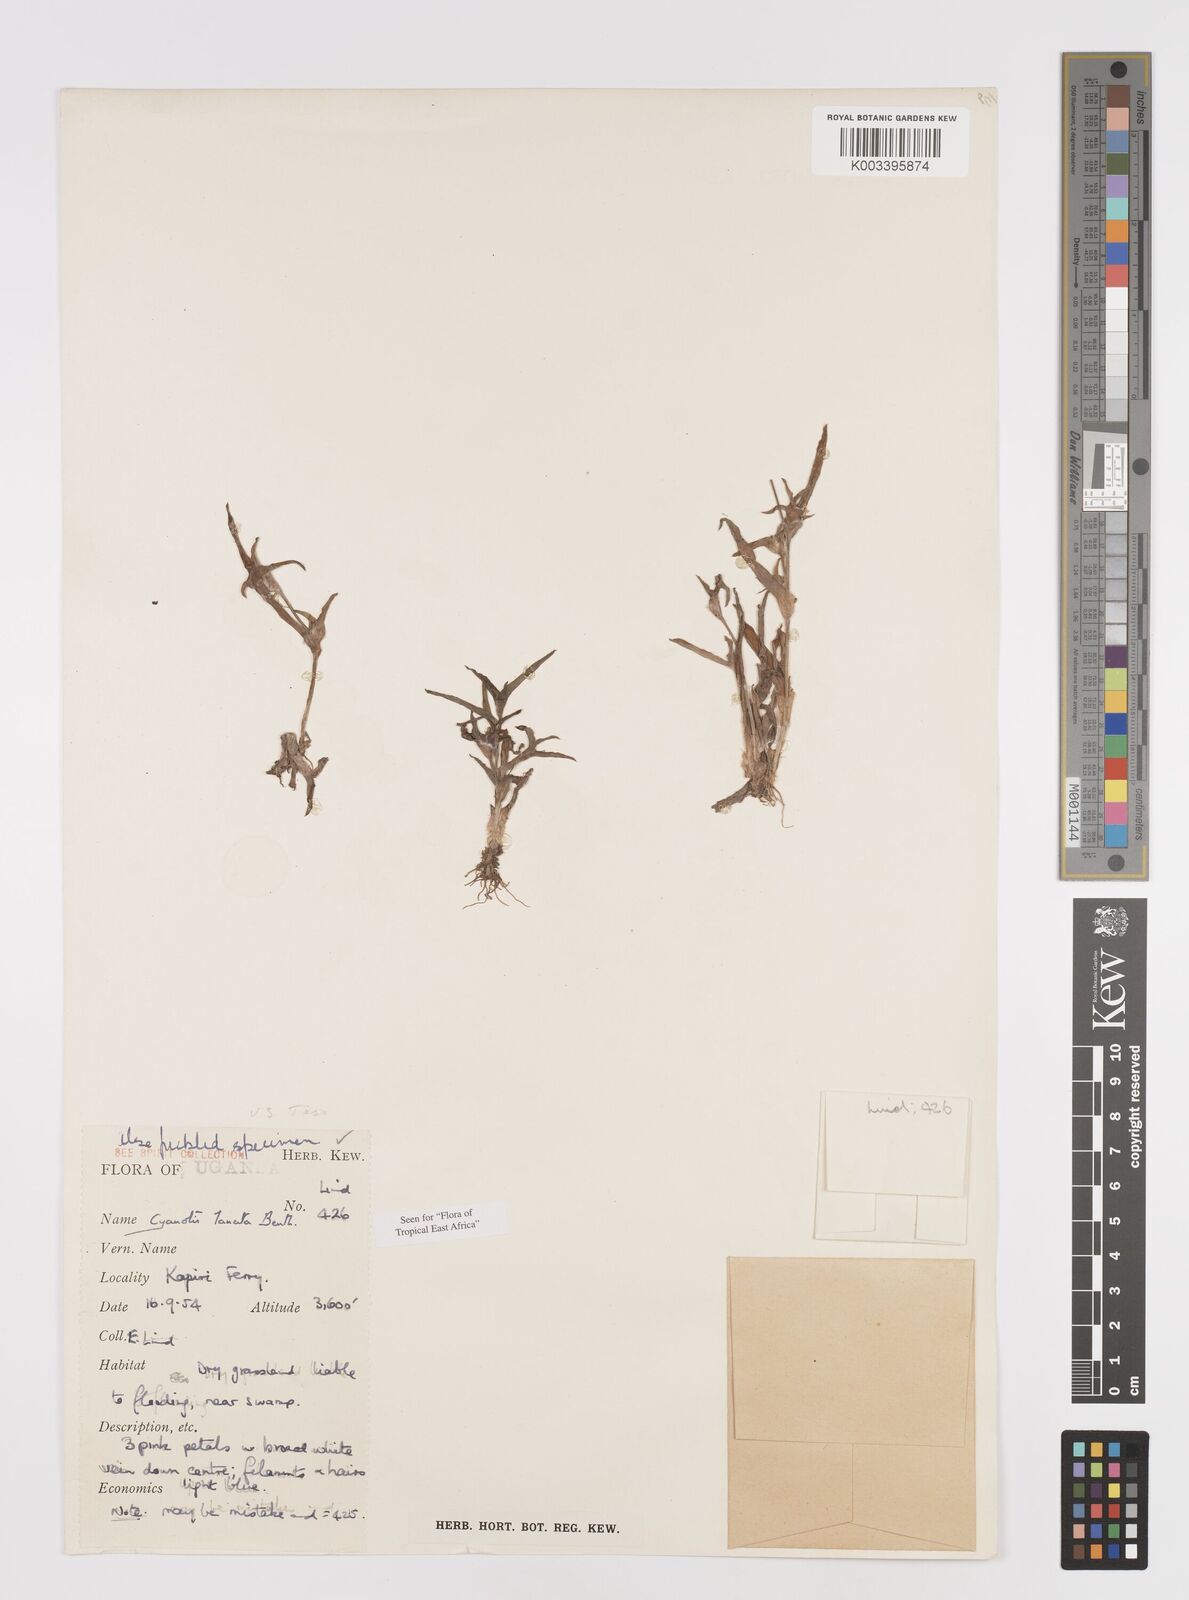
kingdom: Plantae
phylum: Tracheophyta
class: Liliopsida
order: Commelinales
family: Commelinaceae
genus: Cyanotis
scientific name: Cyanotis lanata
